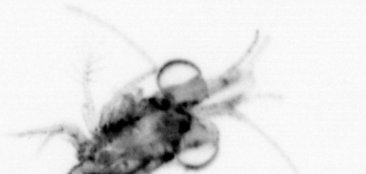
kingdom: Animalia
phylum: Arthropoda
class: Malacostraca
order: Decapoda
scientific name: Decapoda
